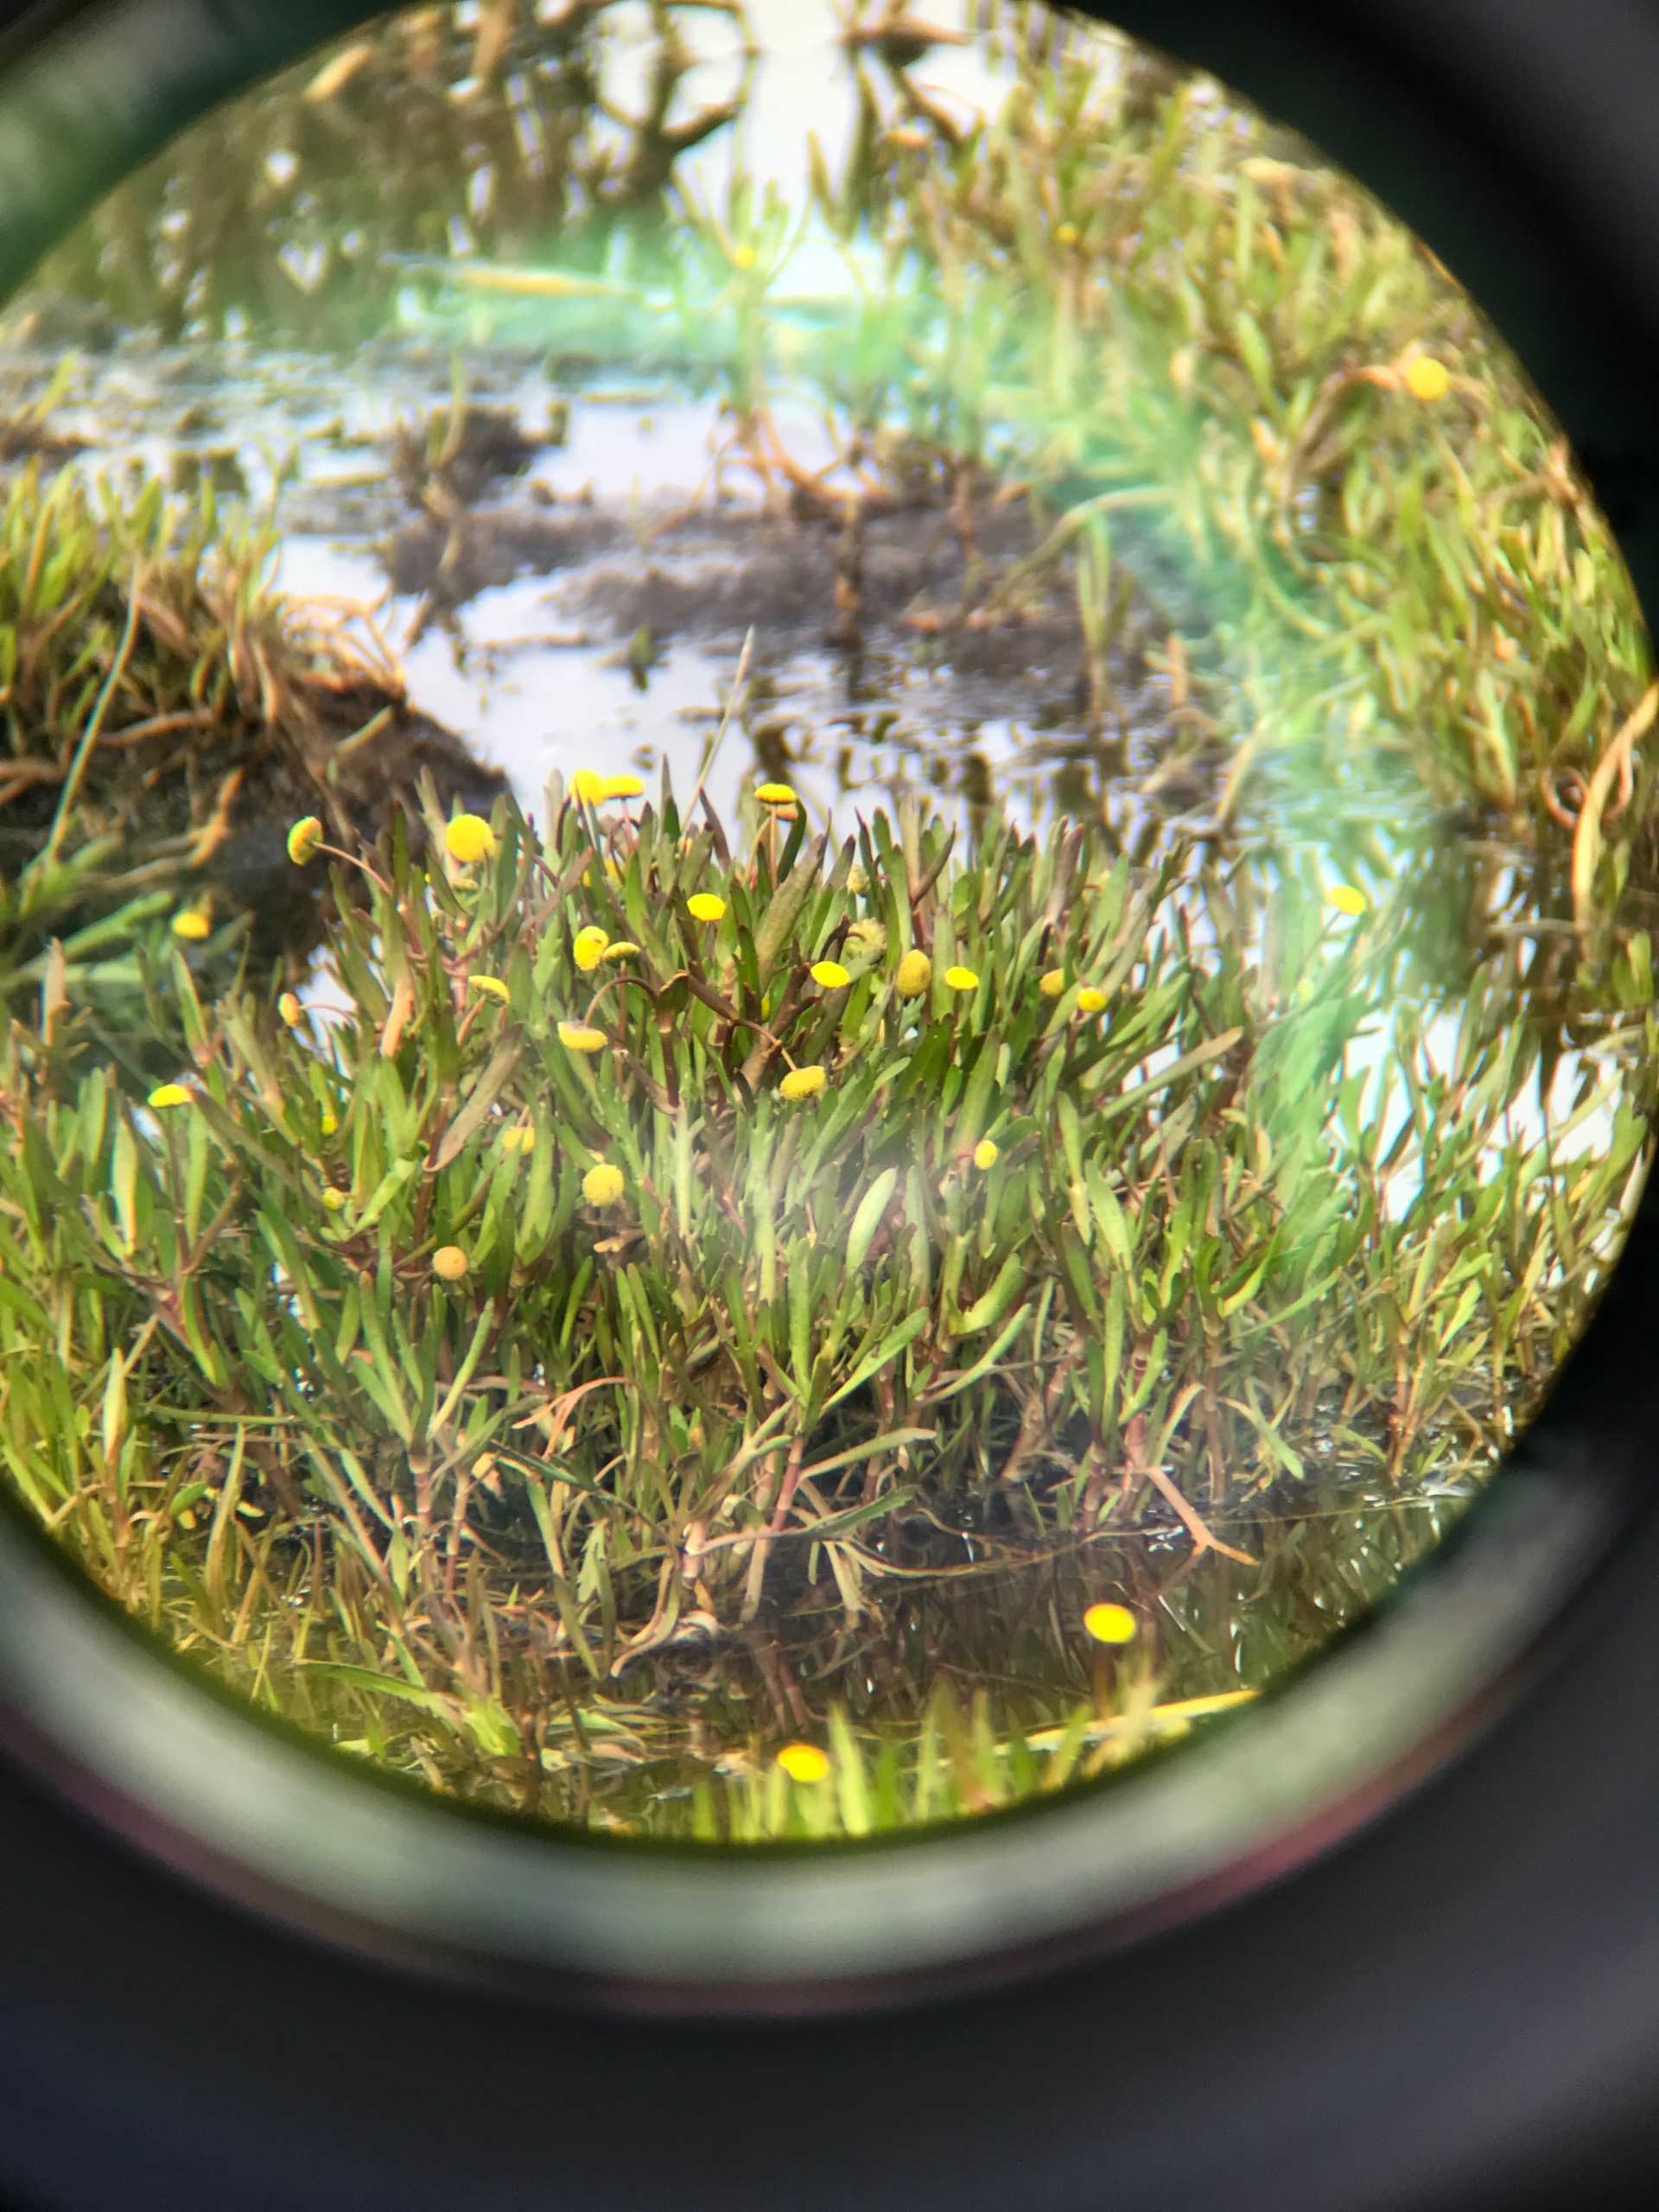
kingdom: Plantae
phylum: Tracheophyta
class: Magnoliopsida
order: Asterales
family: Asteraceae
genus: Cotula
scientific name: Cotula coronopifolia
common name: Firkløft
